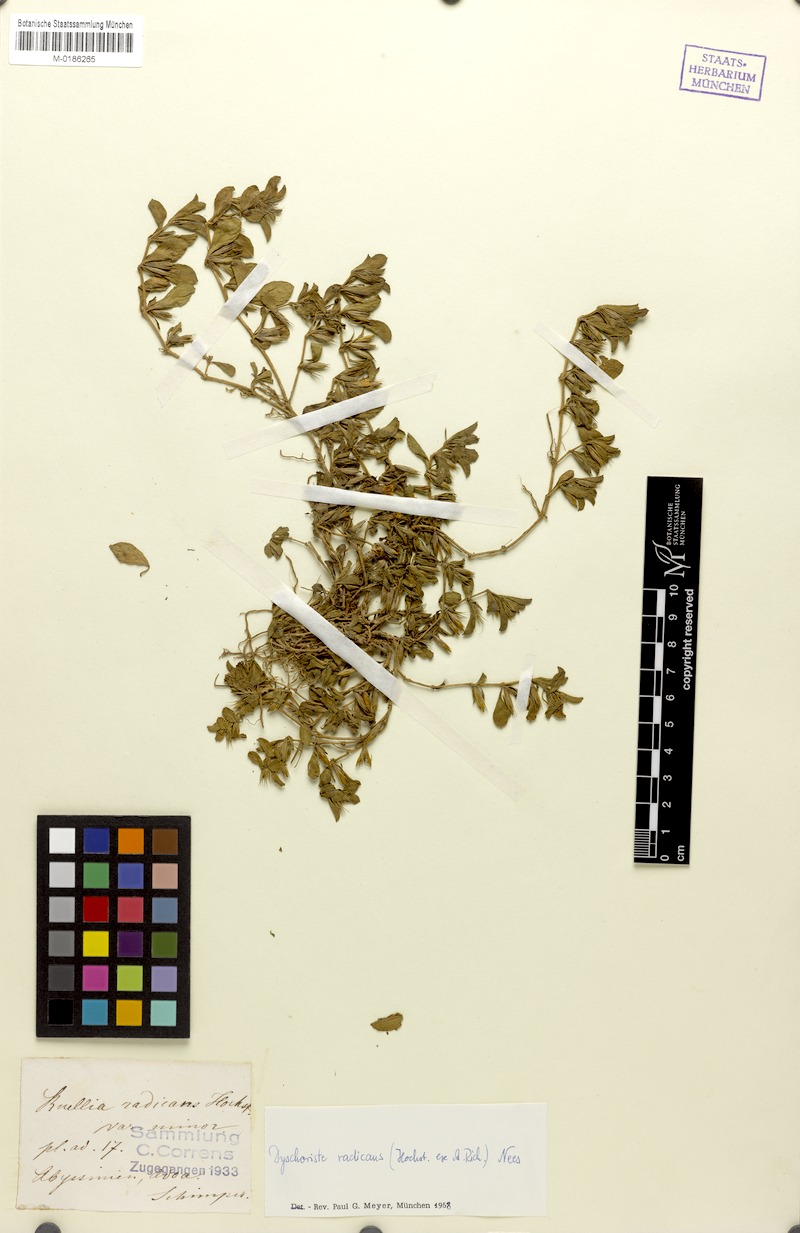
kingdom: Plantae
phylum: Tracheophyta
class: Magnoliopsida
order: Lamiales
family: Acanthaceae
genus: Dyschoriste
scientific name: Dyschoriste radicans
